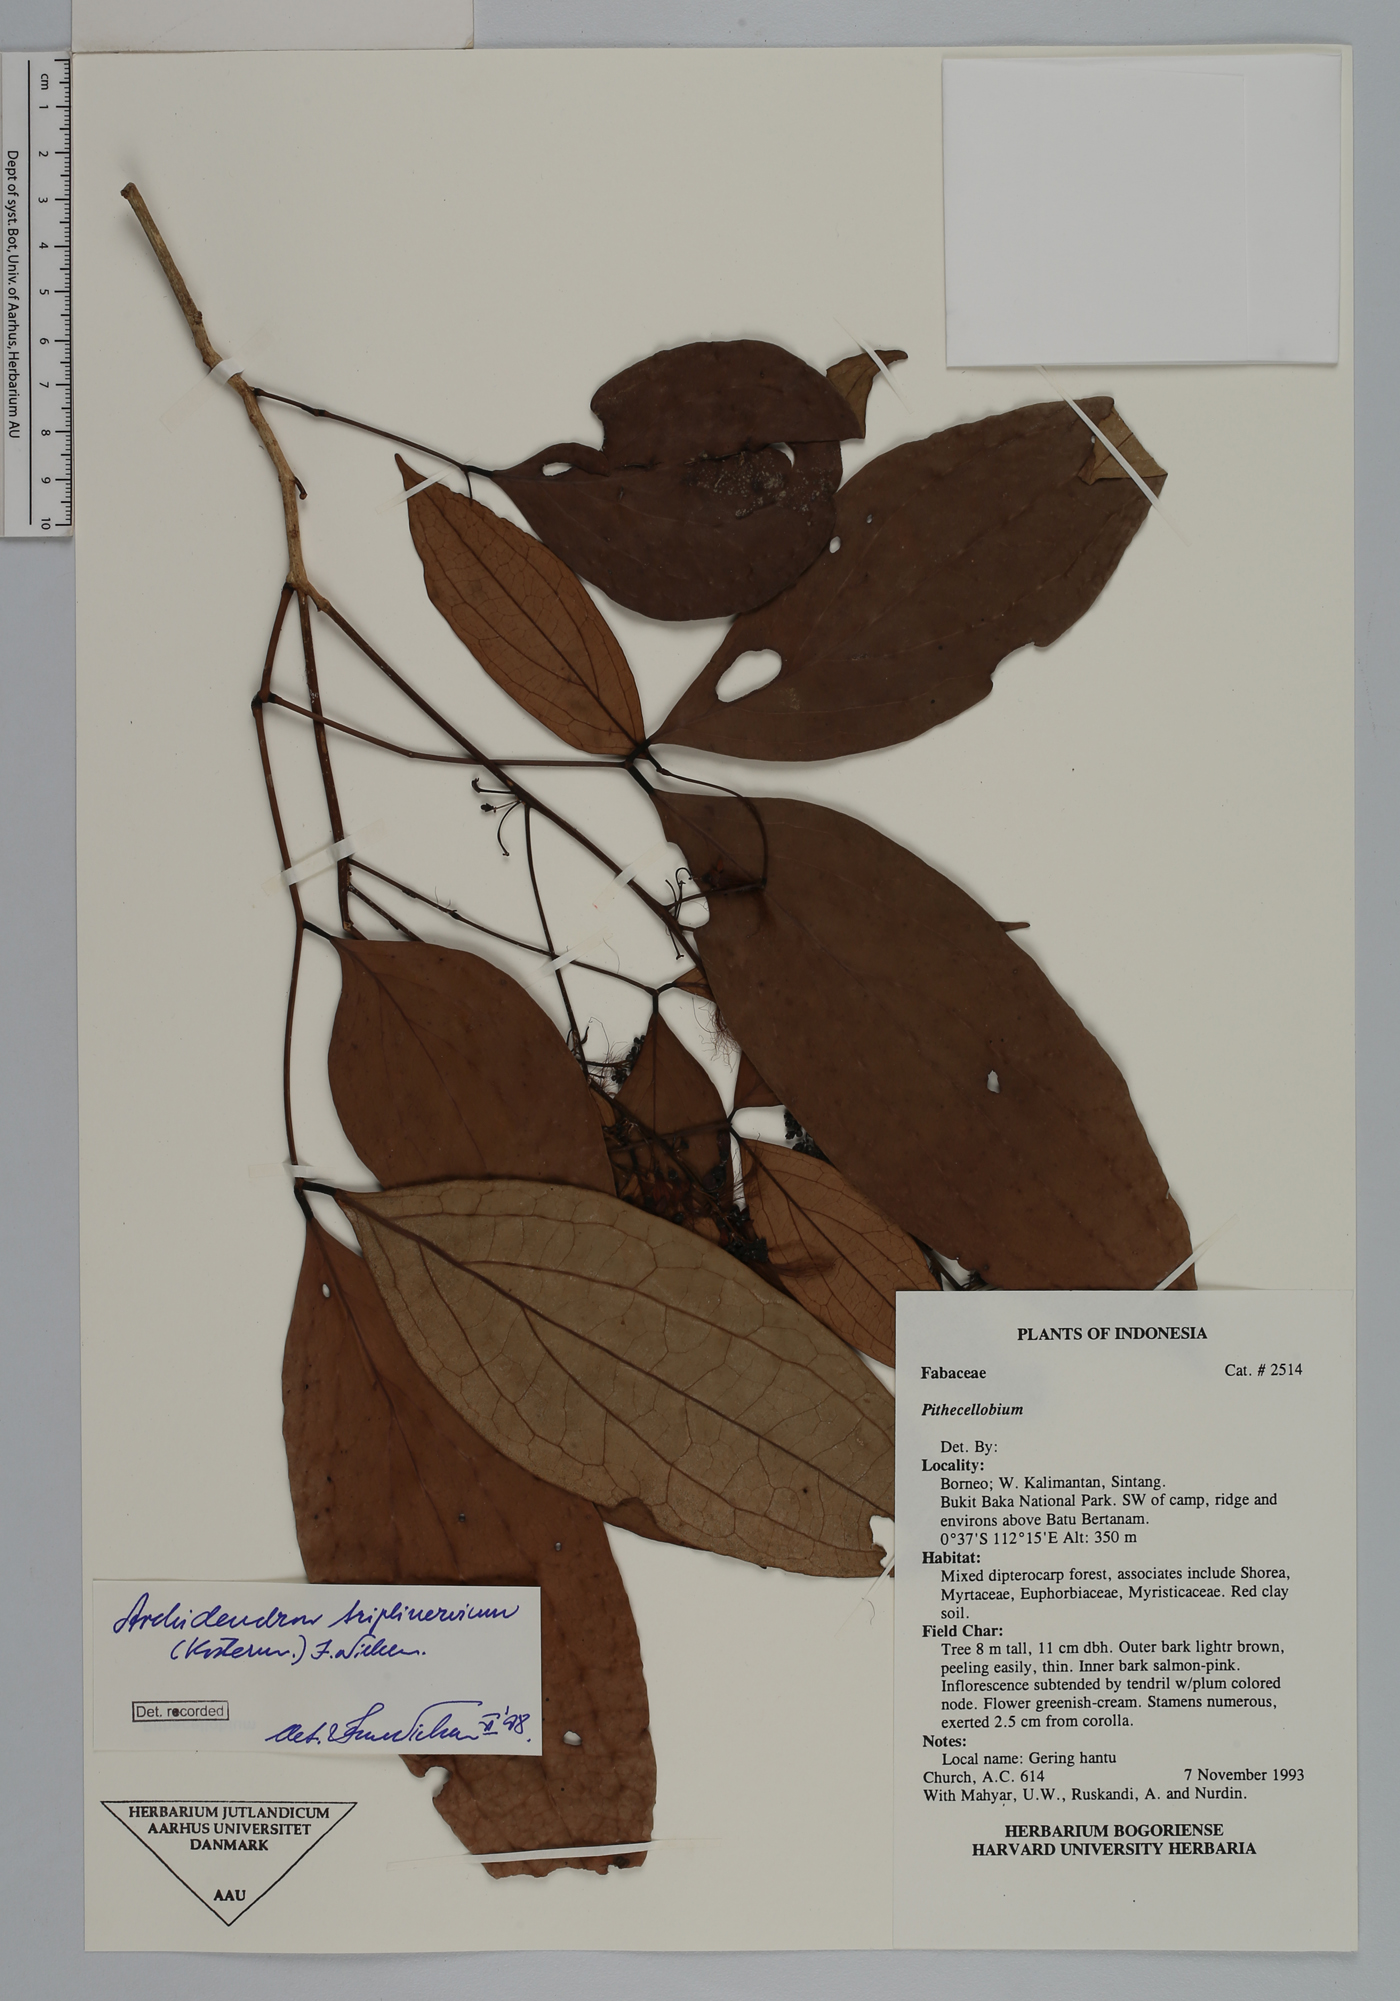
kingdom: Plantae
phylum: Tracheophyta
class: Magnoliopsida
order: Fabales
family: Fabaceae
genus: Archidendron
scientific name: Archidendron triplinervium
